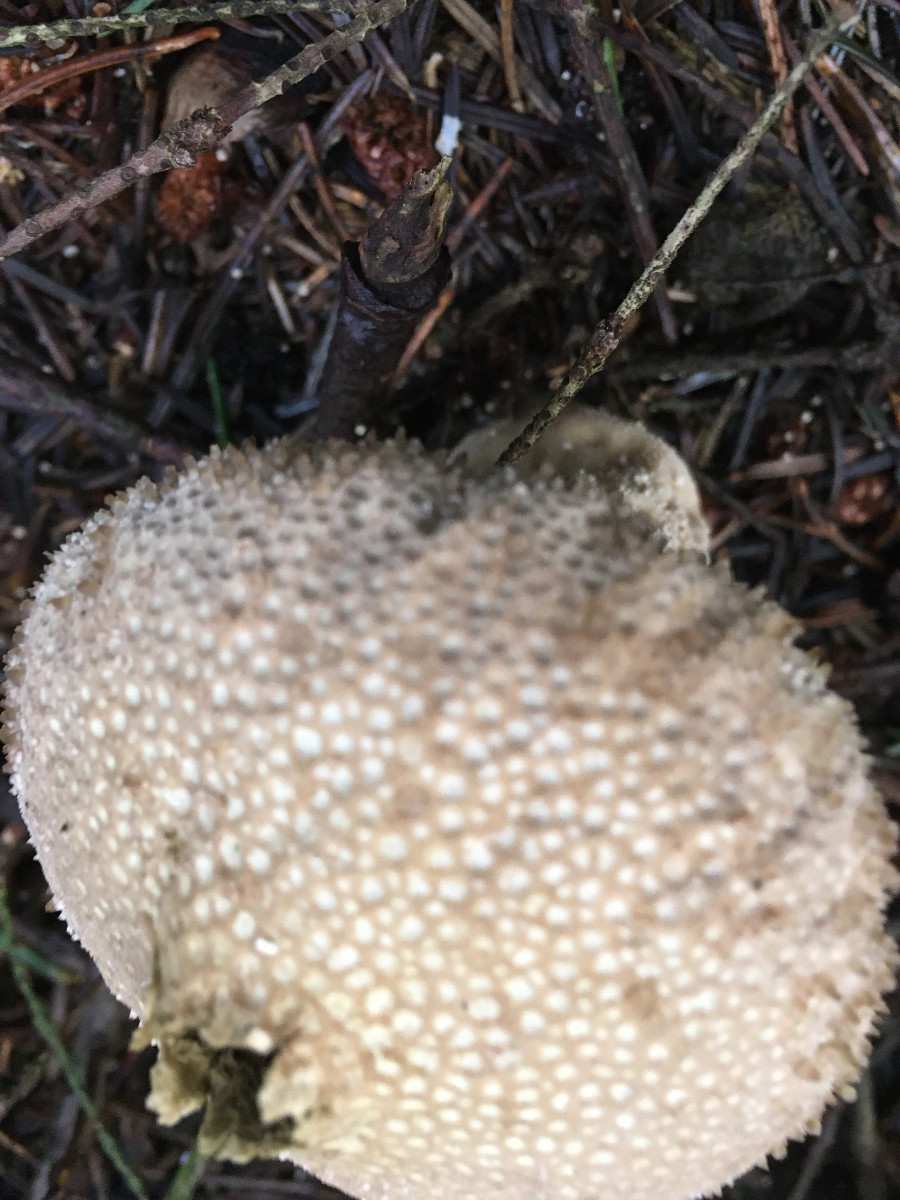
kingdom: Fungi
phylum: Basidiomycota
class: Agaricomycetes
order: Agaricales
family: Lycoperdaceae
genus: Lycoperdon
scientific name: Lycoperdon perlatum
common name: krystal-støvbold
